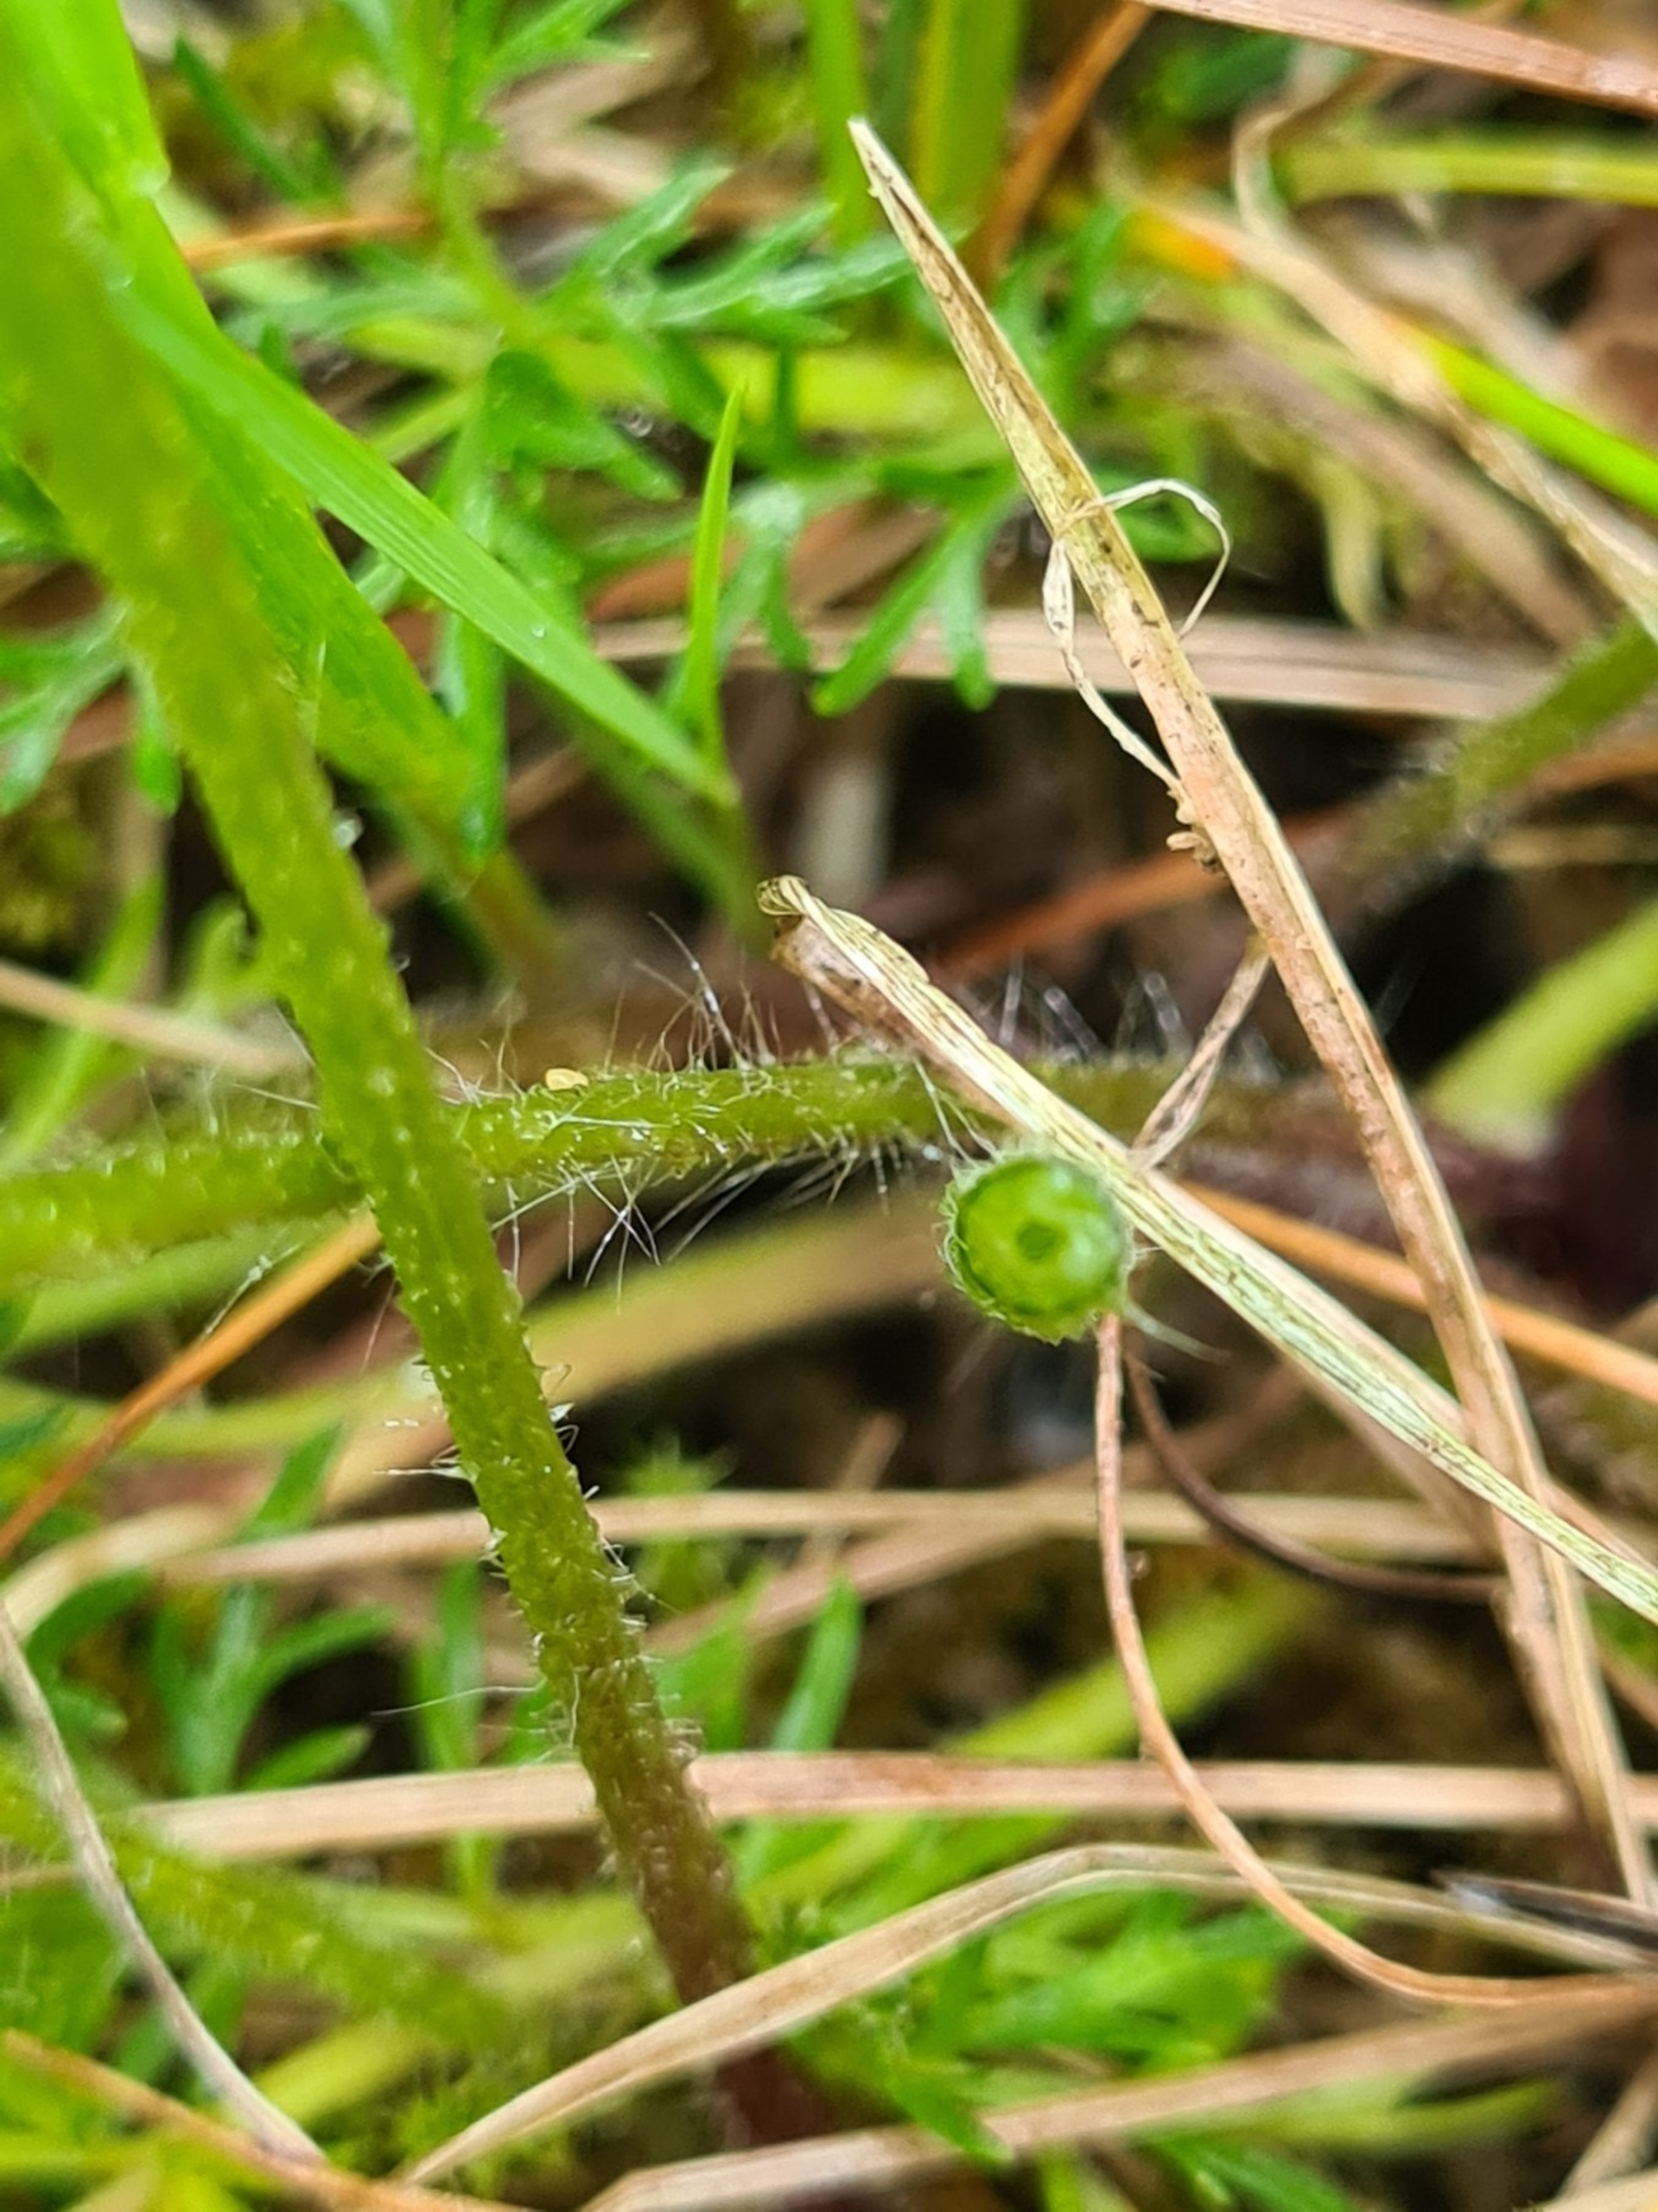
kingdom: Plantae
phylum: Tracheophyta
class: Magnoliopsida
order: Ranunculales
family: Ranunculaceae
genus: Pulsatilla
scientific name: Pulsatilla vulgaris
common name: Opret kobjælde
